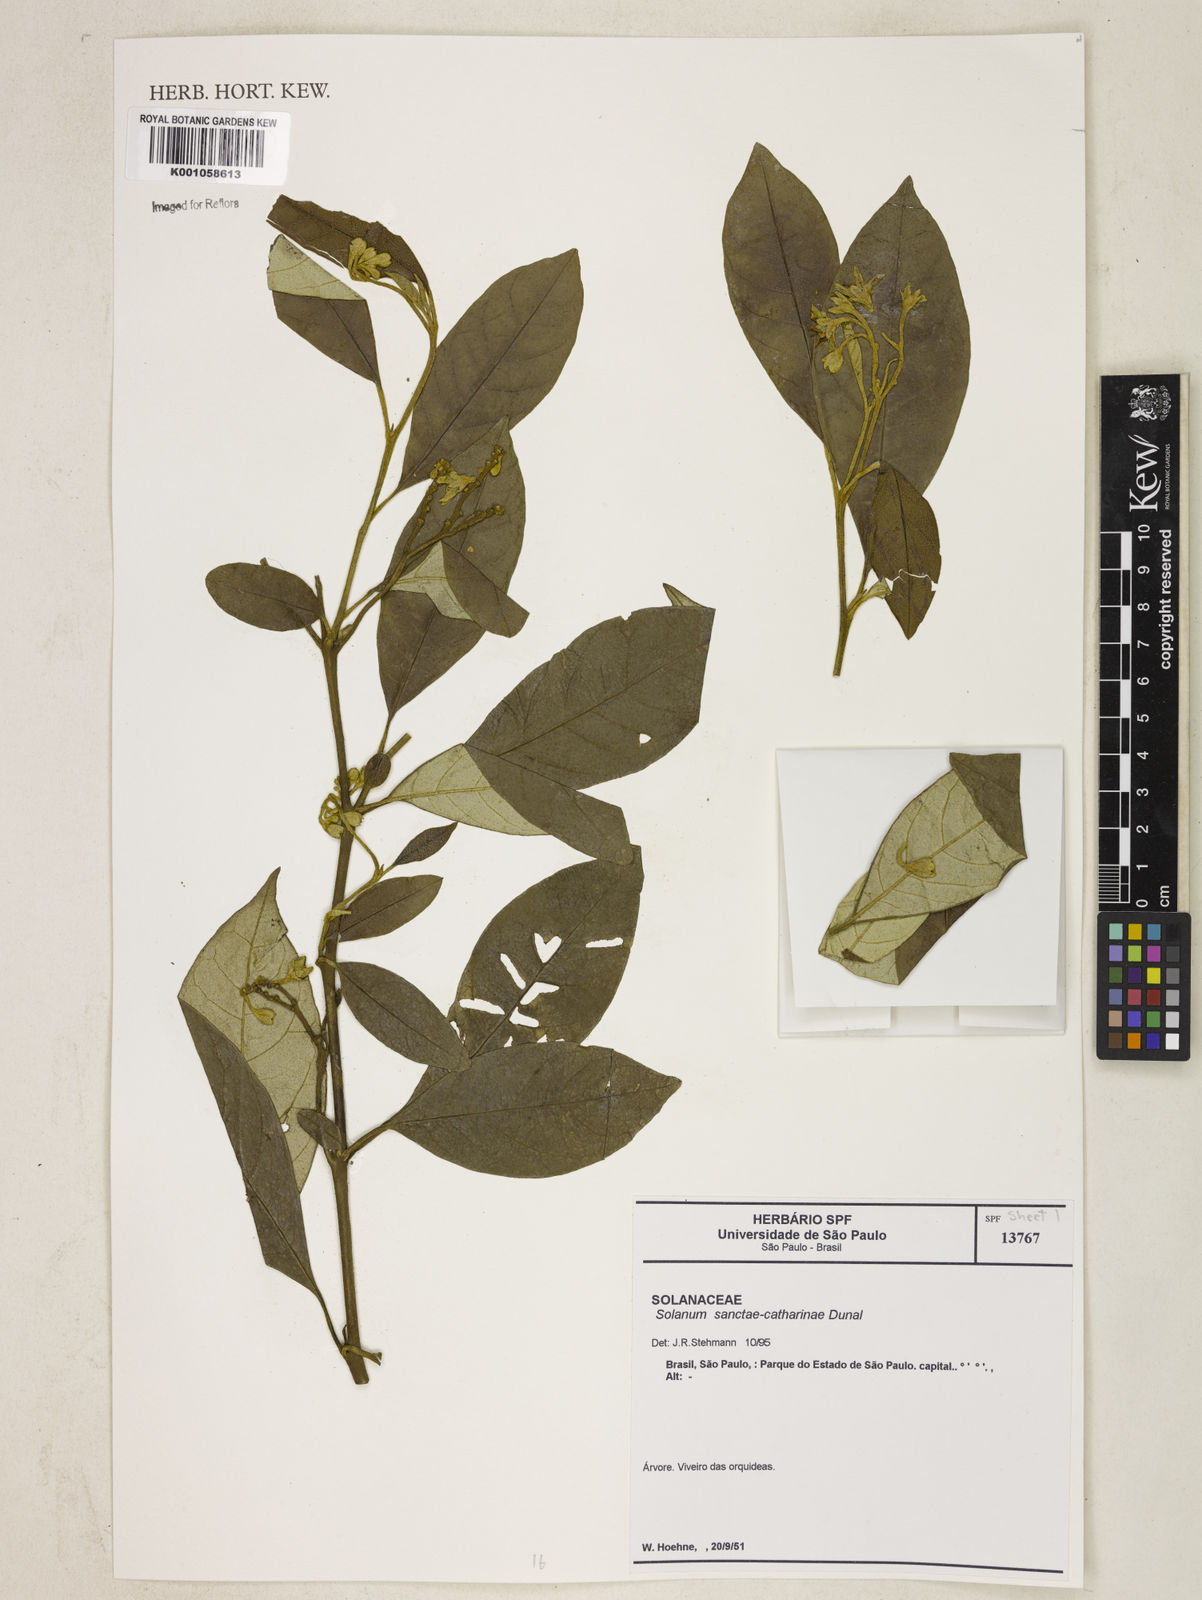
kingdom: Plantae
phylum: Tracheophyta
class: Magnoliopsida
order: Solanales
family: Solanaceae
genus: Solanum
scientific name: Solanum sanctae-catharinae
